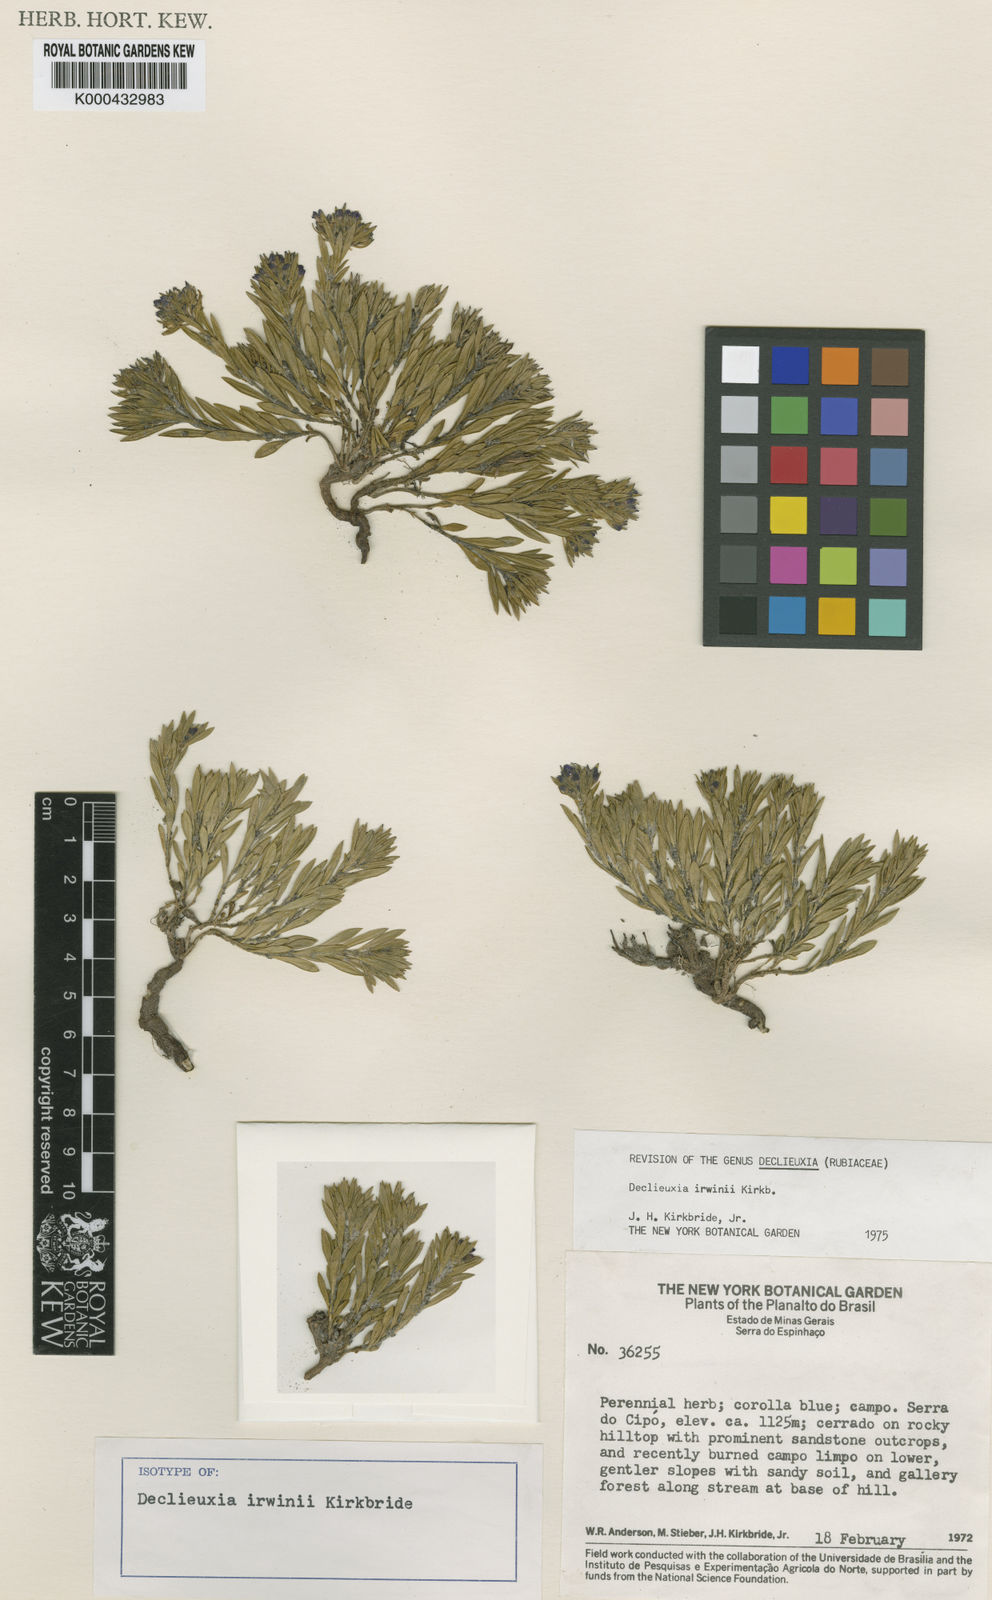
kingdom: Plantae
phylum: Tracheophyta
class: Magnoliopsida
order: Gentianales
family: Rubiaceae
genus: Declieuxia
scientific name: Declieuxia irwinii
